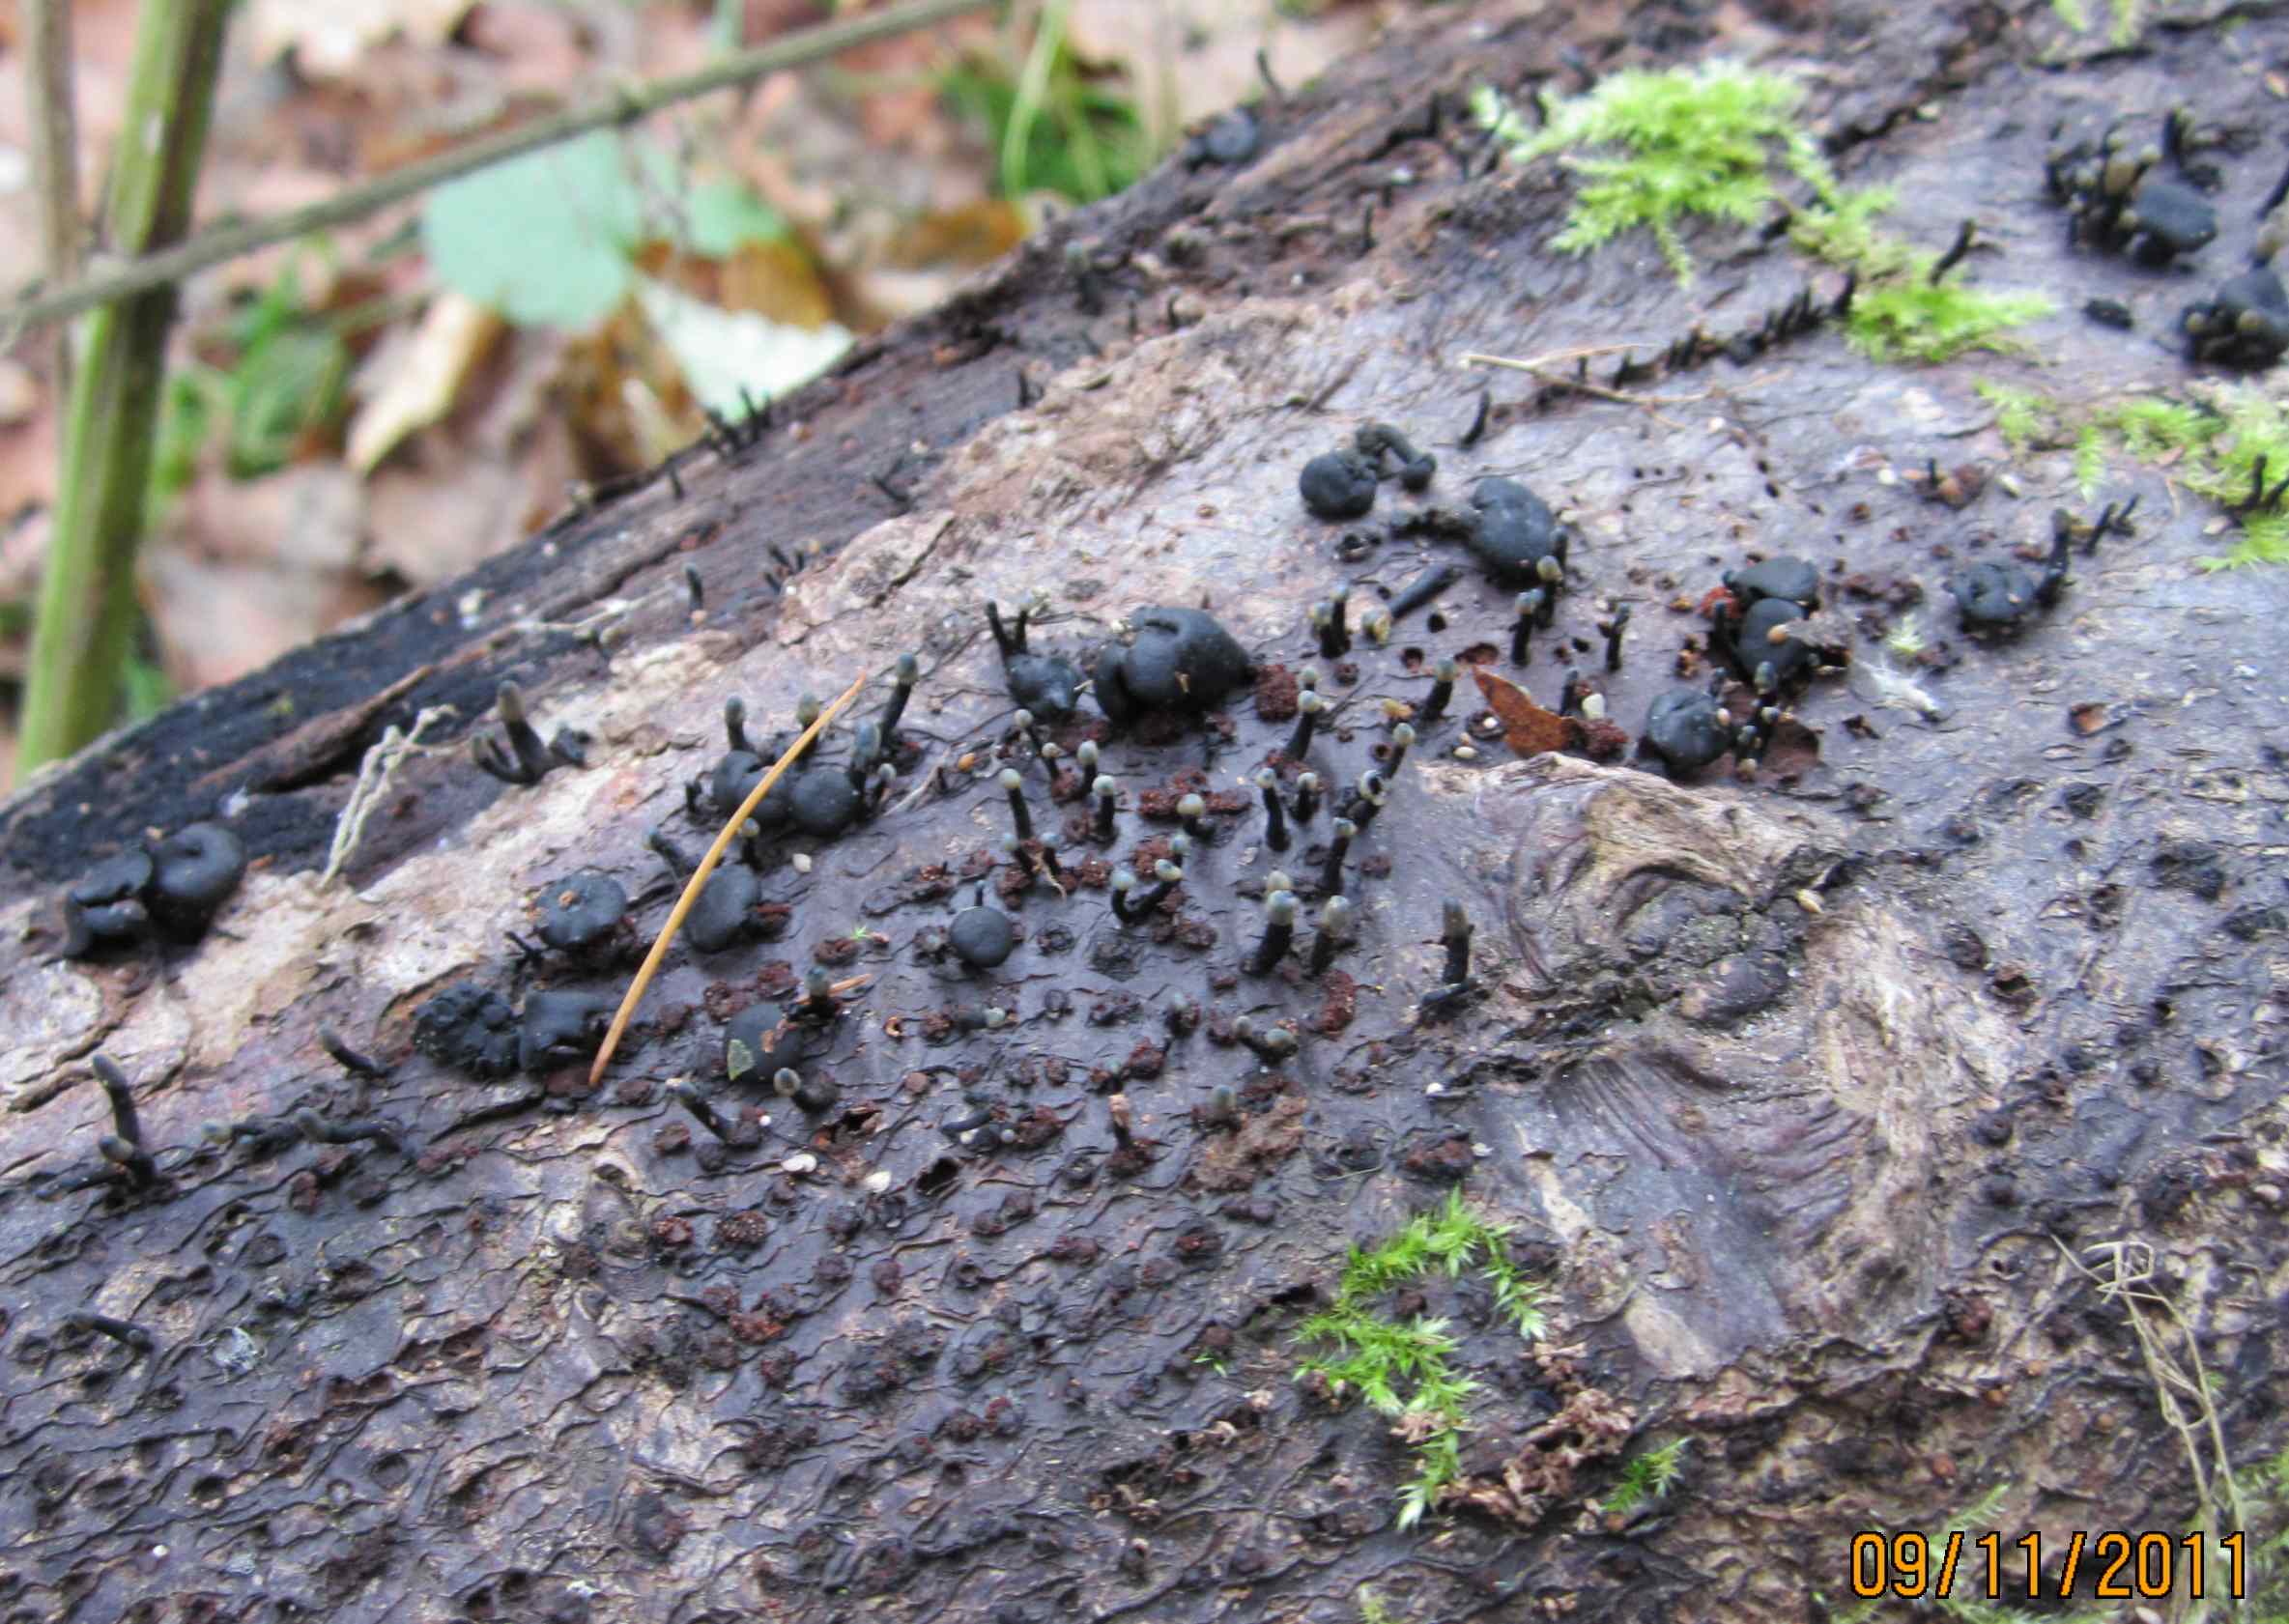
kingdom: Fungi
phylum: Ascomycota
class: Leotiomycetes
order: Helotiales
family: Bulgariaceae
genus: Holwaya
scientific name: Holwaya mucida
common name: lindeskive
